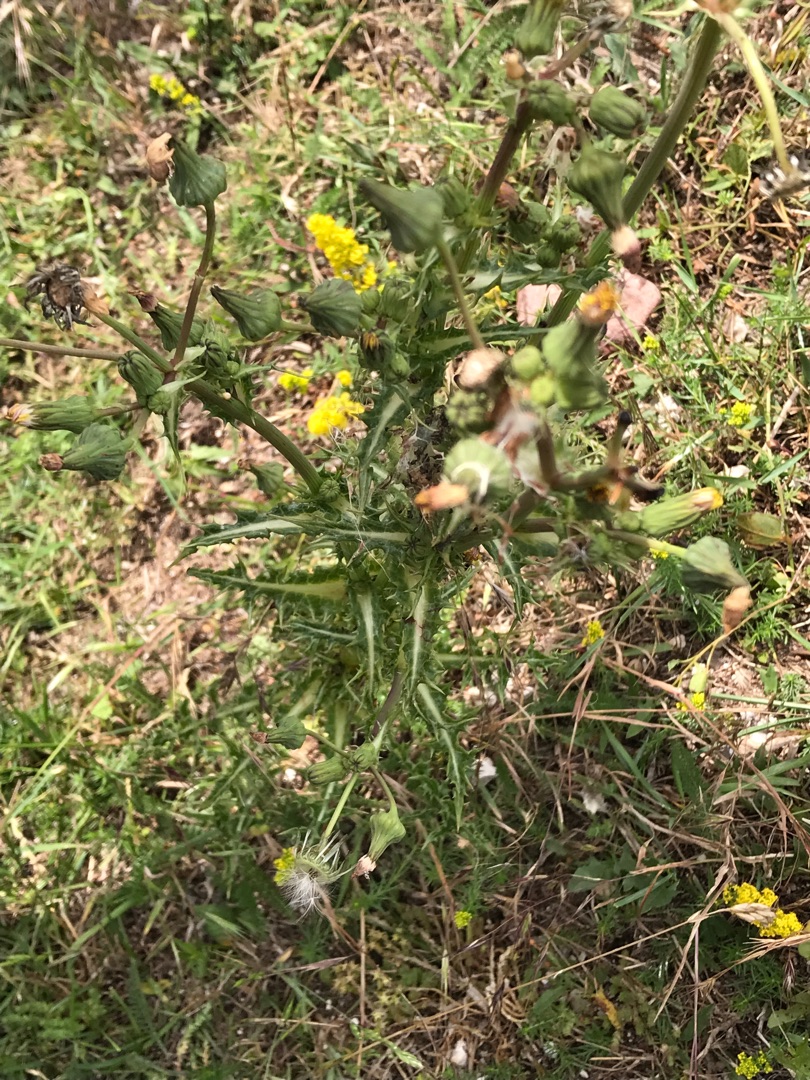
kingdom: Plantae
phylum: Tracheophyta
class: Magnoliopsida
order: Asterales
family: Asteraceae
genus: Sonchus
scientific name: Sonchus asper
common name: Ru svinemælk
